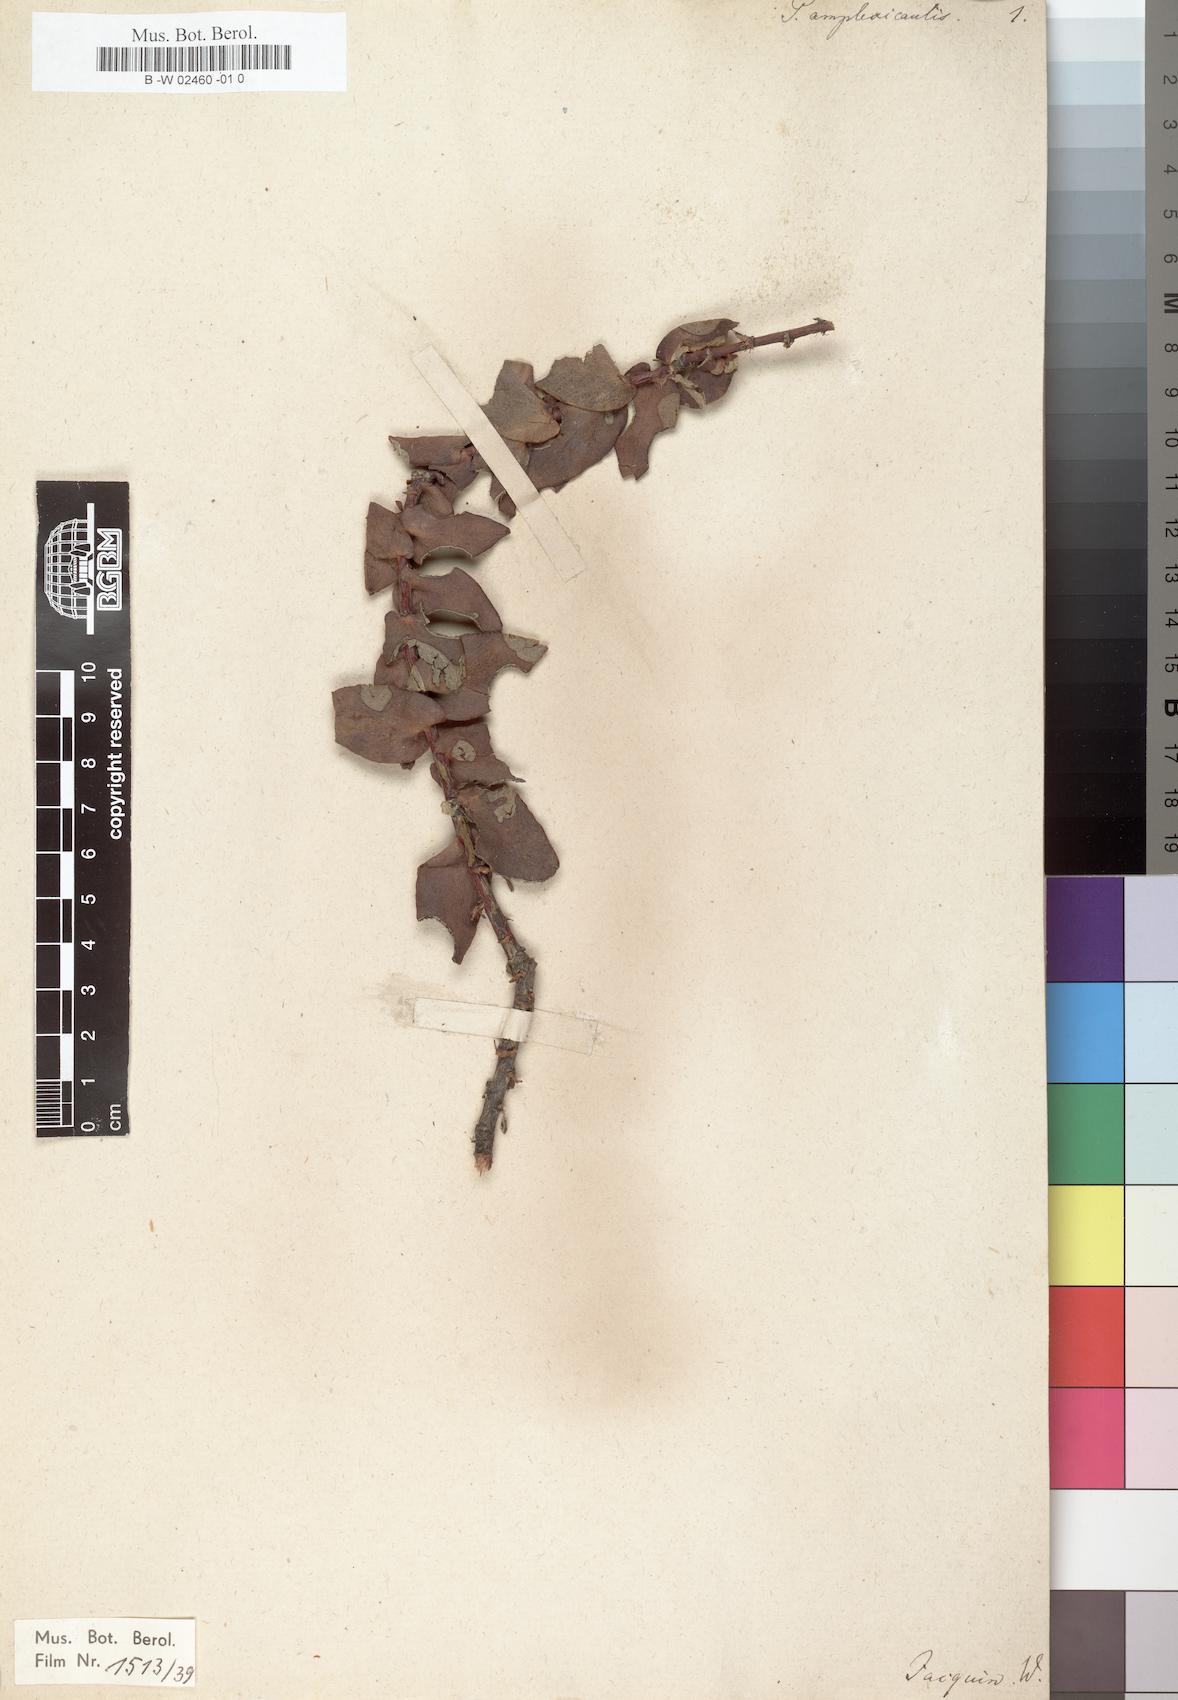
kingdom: Plantae
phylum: Tracheophyta
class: Magnoliopsida
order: Proteales
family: Proteaceae
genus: Protea
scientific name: Protea amplexicaulis
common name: Clasping-leaf sugarbush
